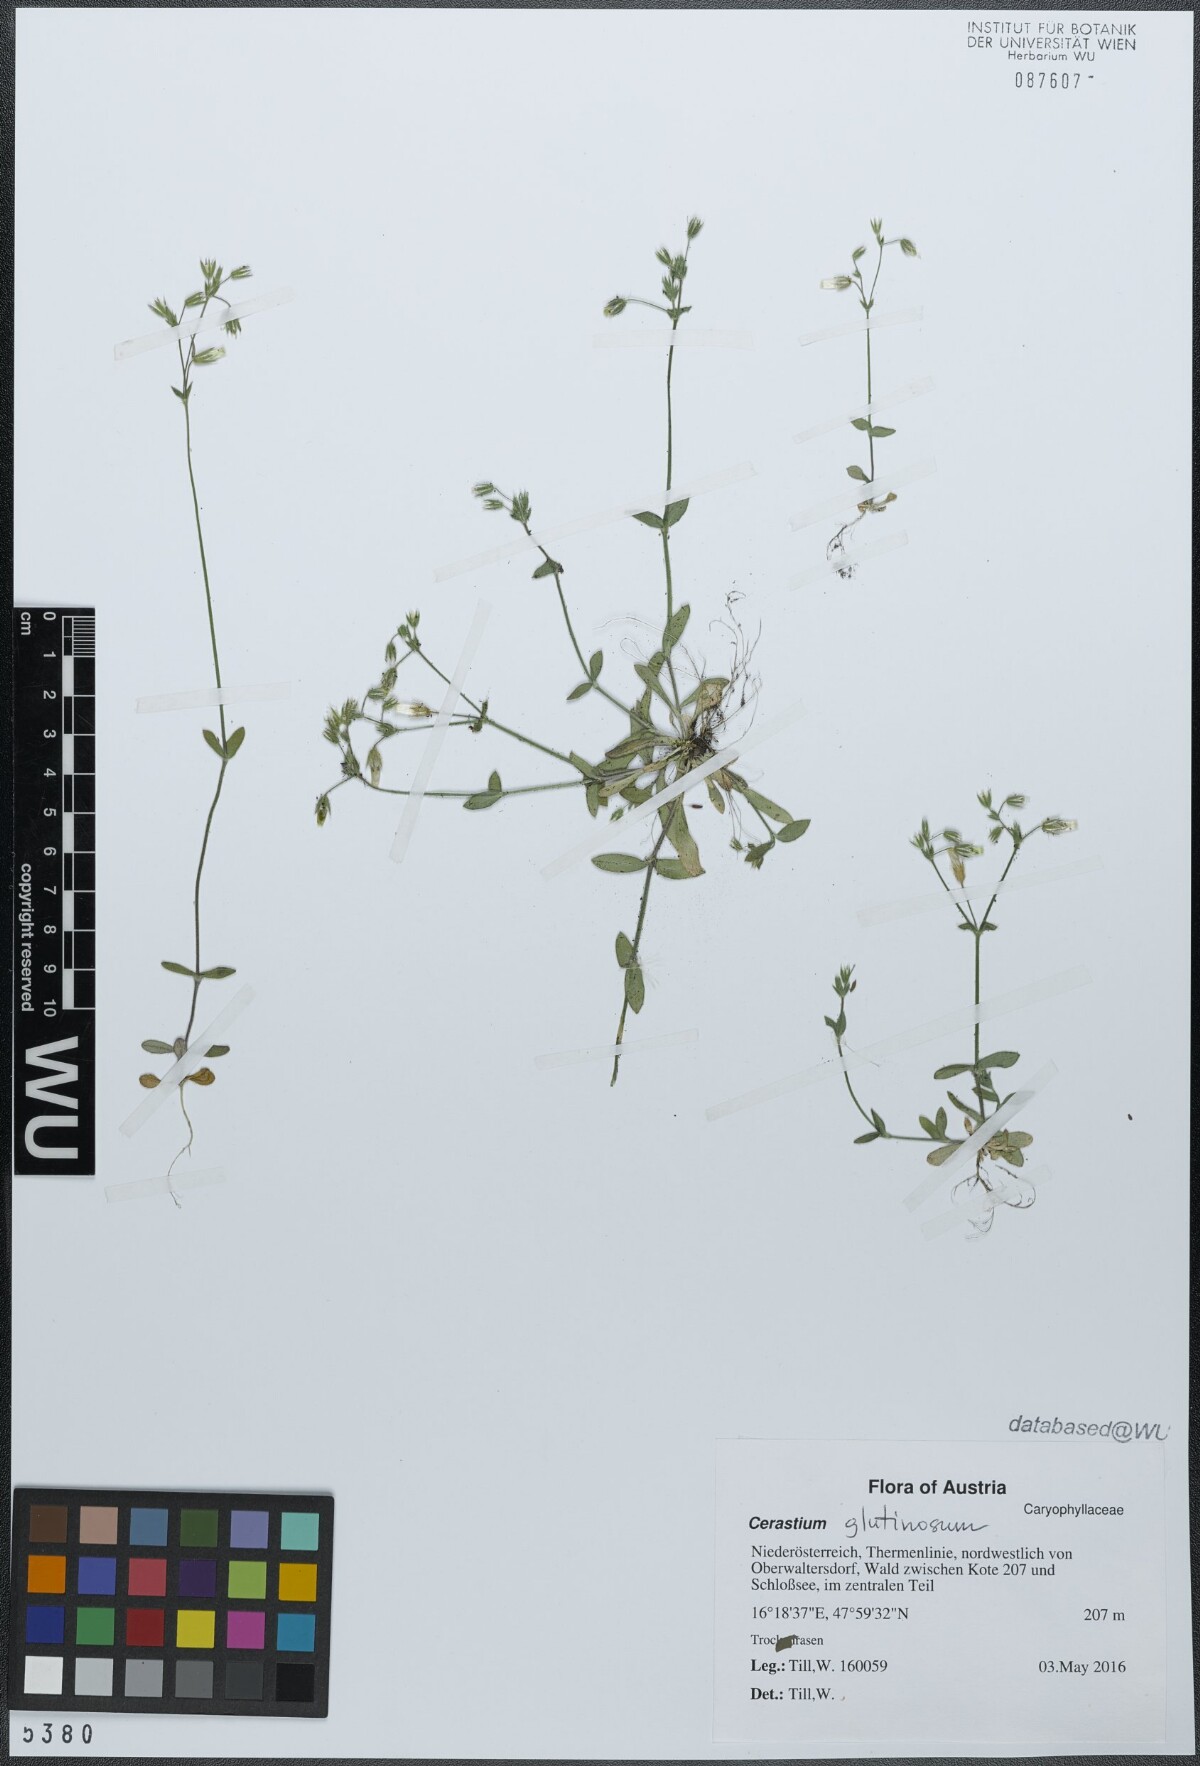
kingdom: Plantae
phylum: Tracheophyta
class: Magnoliopsida
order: Caryophyllales
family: Caryophyllaceae
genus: Cerastium
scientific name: Cerastium glutinosum
